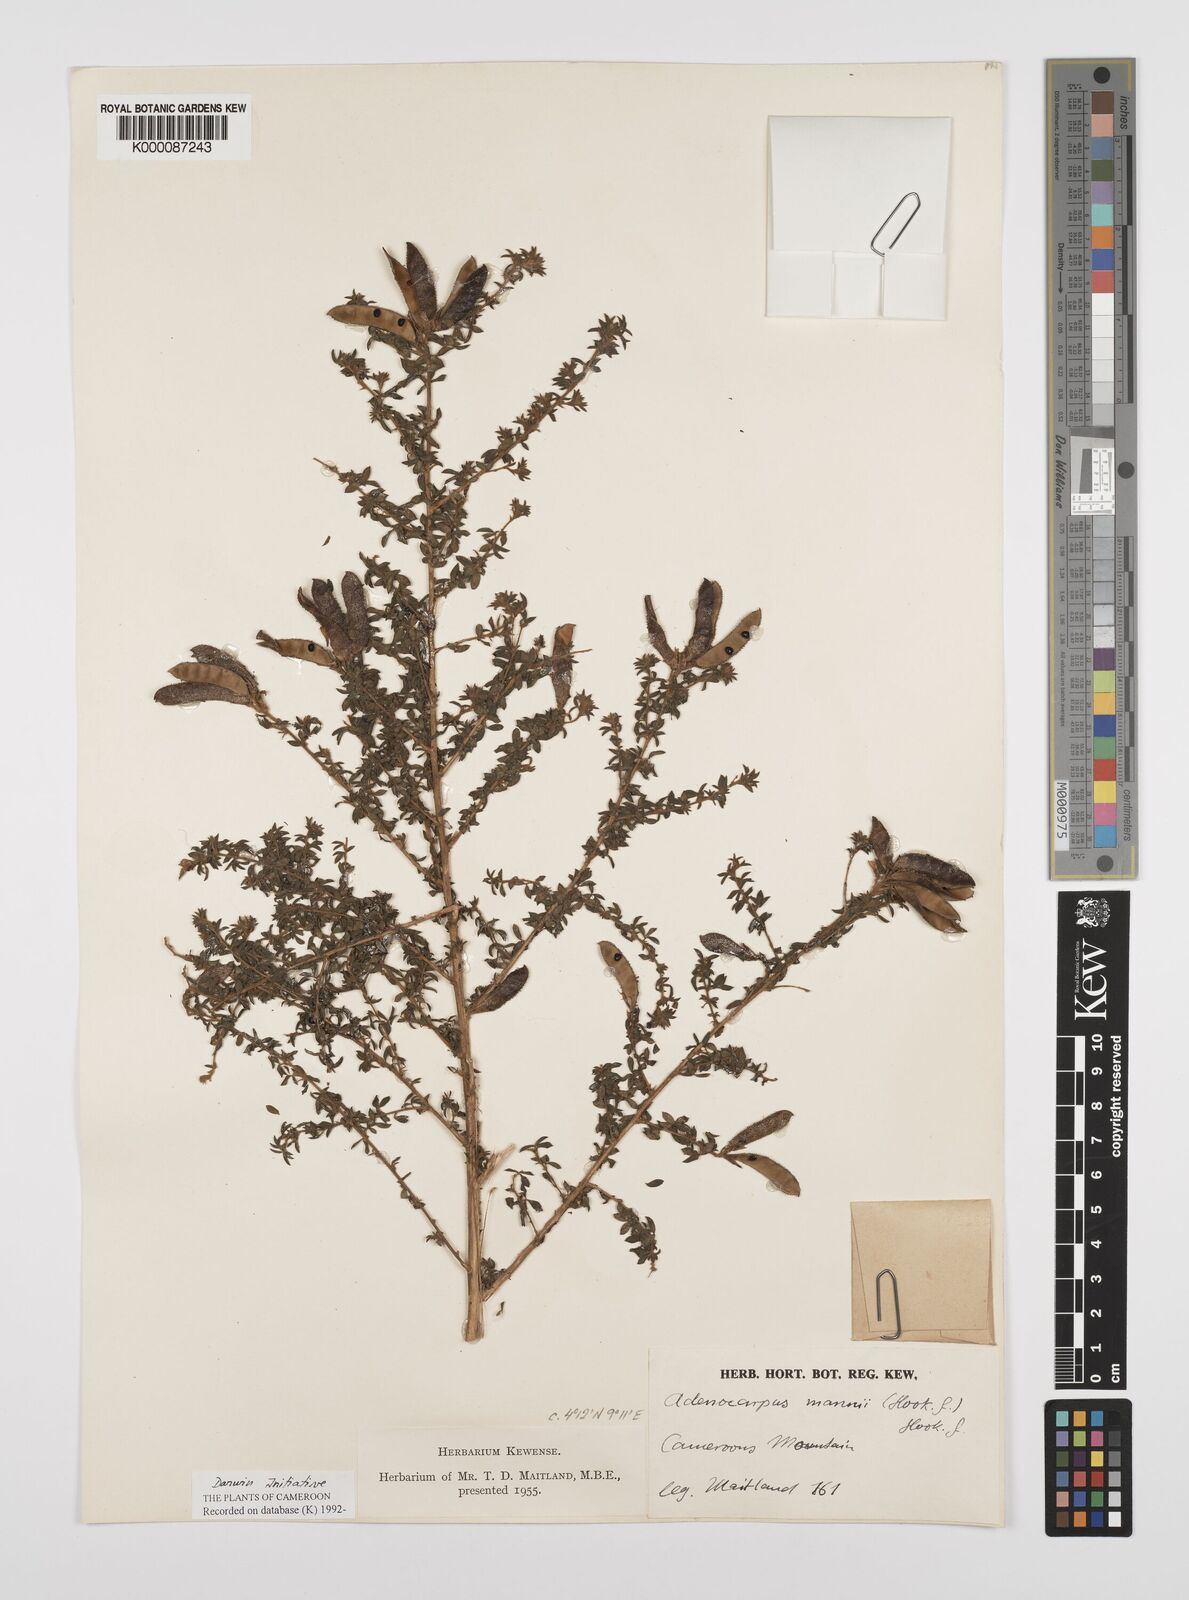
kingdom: Plantae
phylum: Tracheophyta
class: Magnoliopsida
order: Fabales
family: Fabaceae
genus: Adenocarpus
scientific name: Adenocarpus mannii
